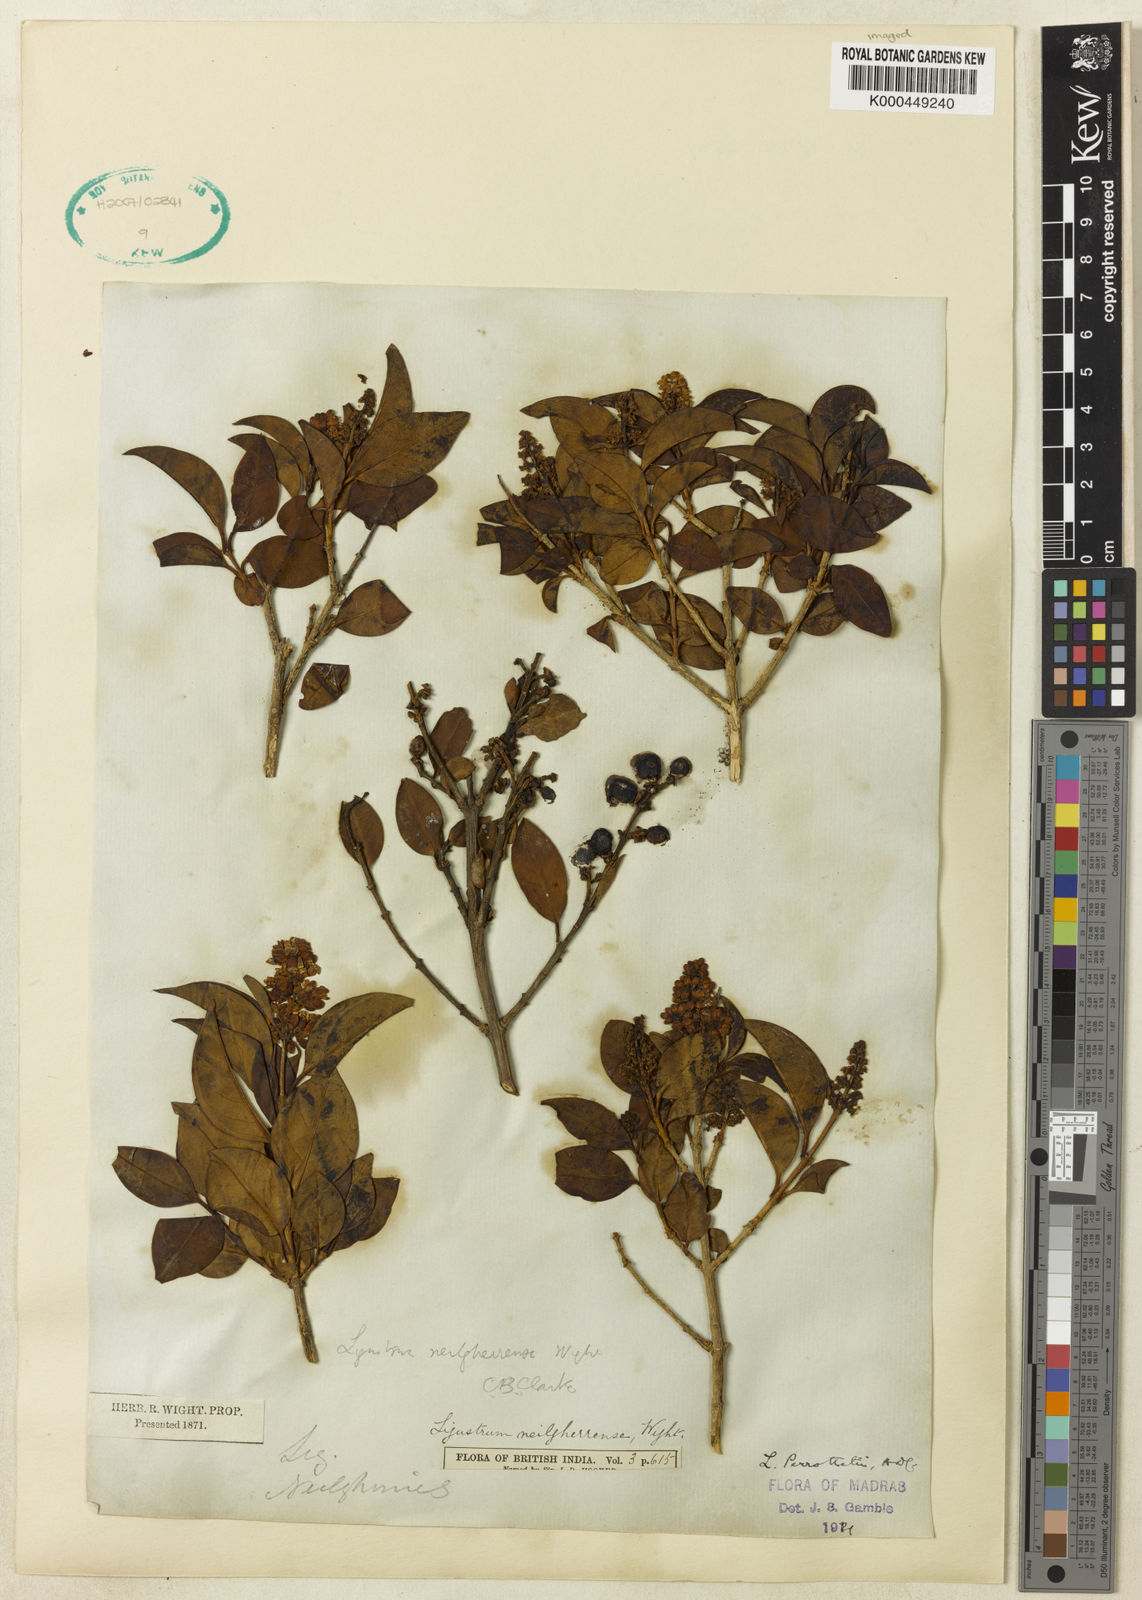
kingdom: Plantae
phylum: Tracheophyta
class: Magnoliopsida
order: Lamiales
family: Oleaceae
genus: Ligustrum
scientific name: Ligustrum robustum
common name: Tree privet
